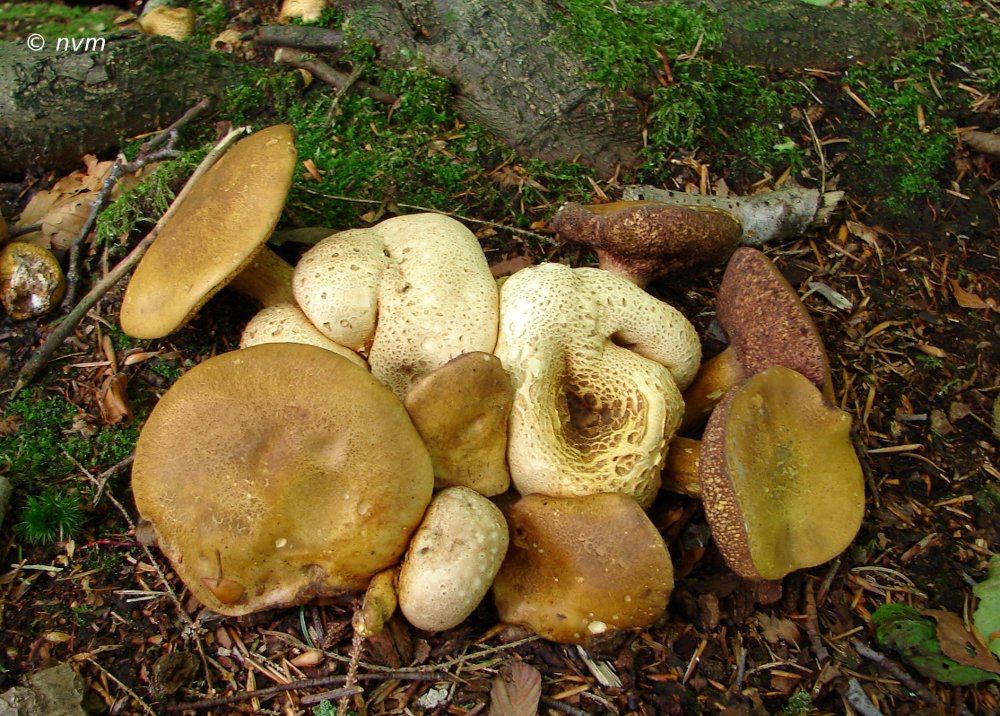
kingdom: Fungi
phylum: Basidiomycota
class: Agaricomycetes
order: Boletales
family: Sclerodermataceae
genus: Scleroderma
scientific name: Scleroderma citrinum
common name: almindelig bruskbold
